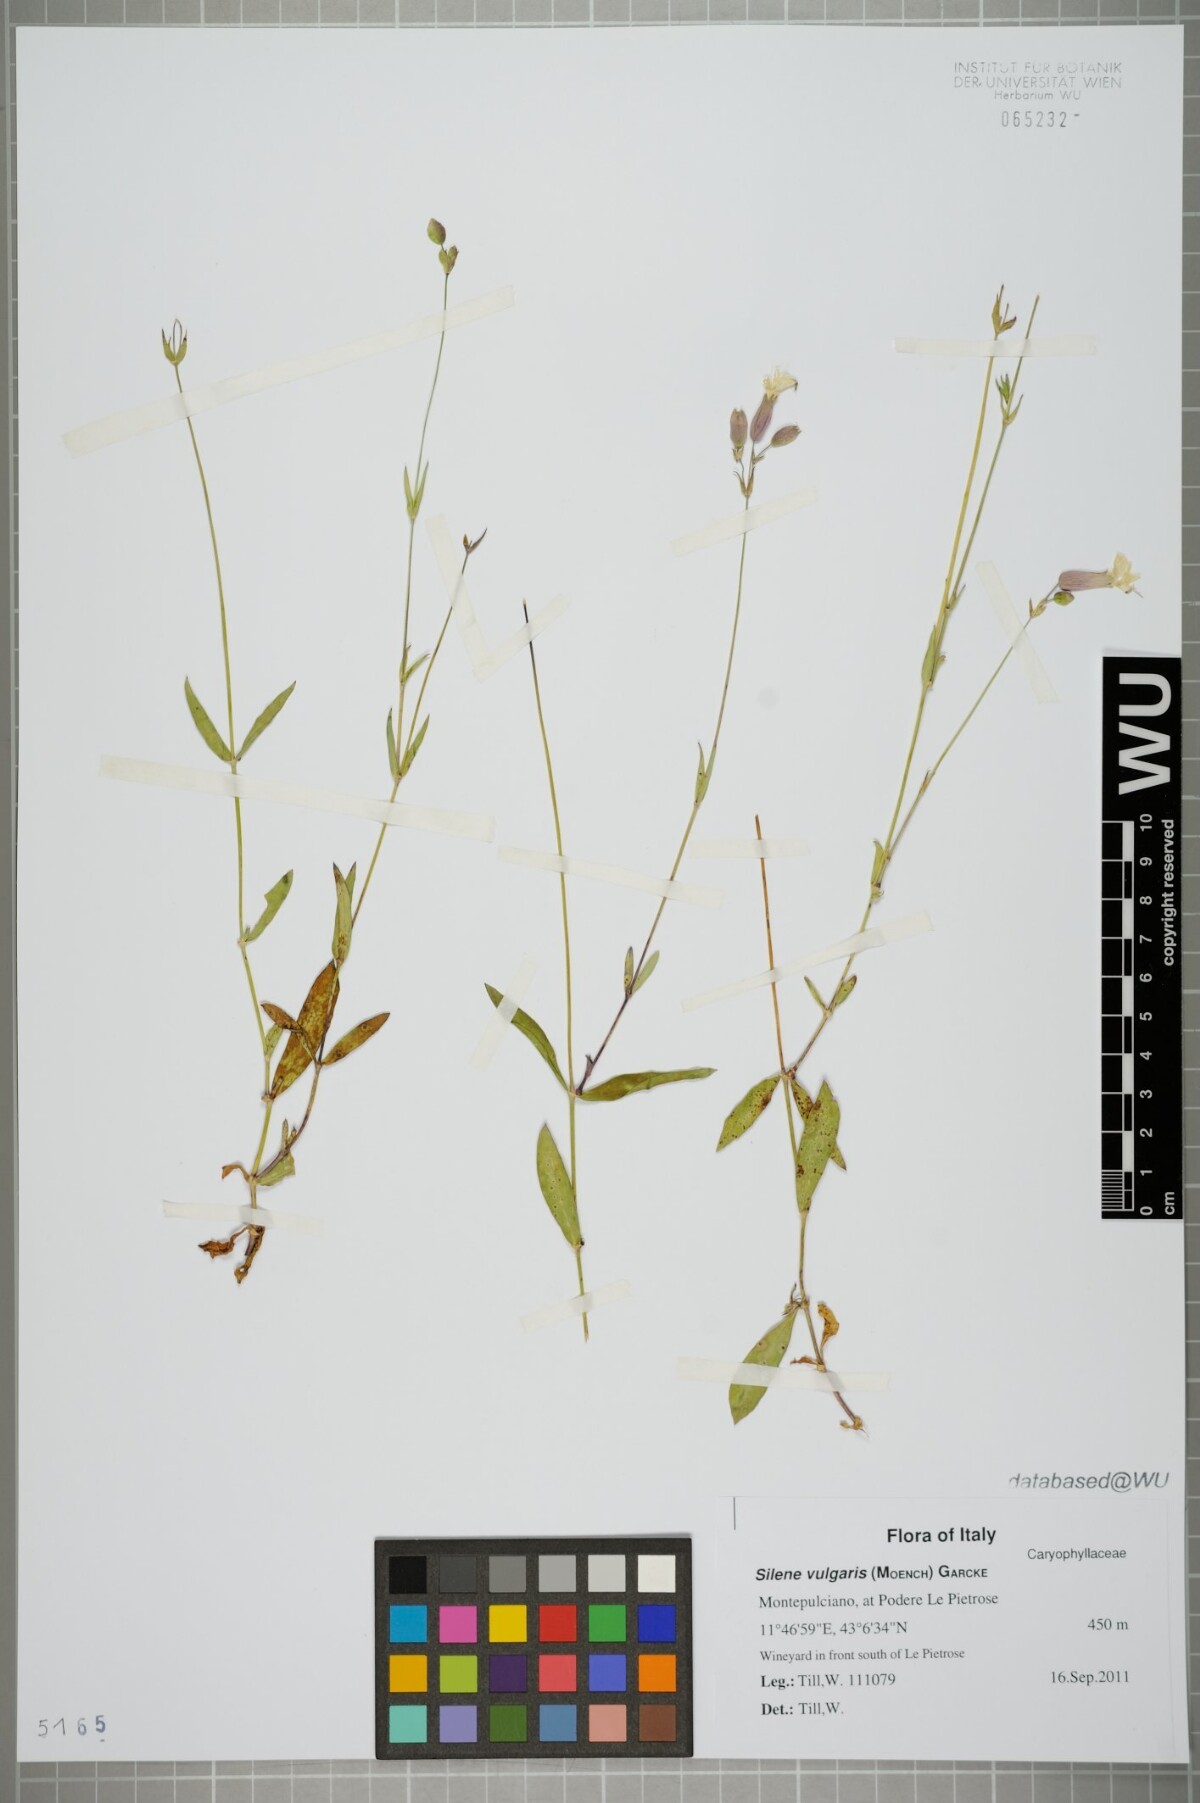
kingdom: Plantae
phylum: Tracheophyta
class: Magnoliopsida
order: Caryophyllales
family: Caryophyllaceae
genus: Silene
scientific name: Silene vulgaris
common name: Bladder campion
